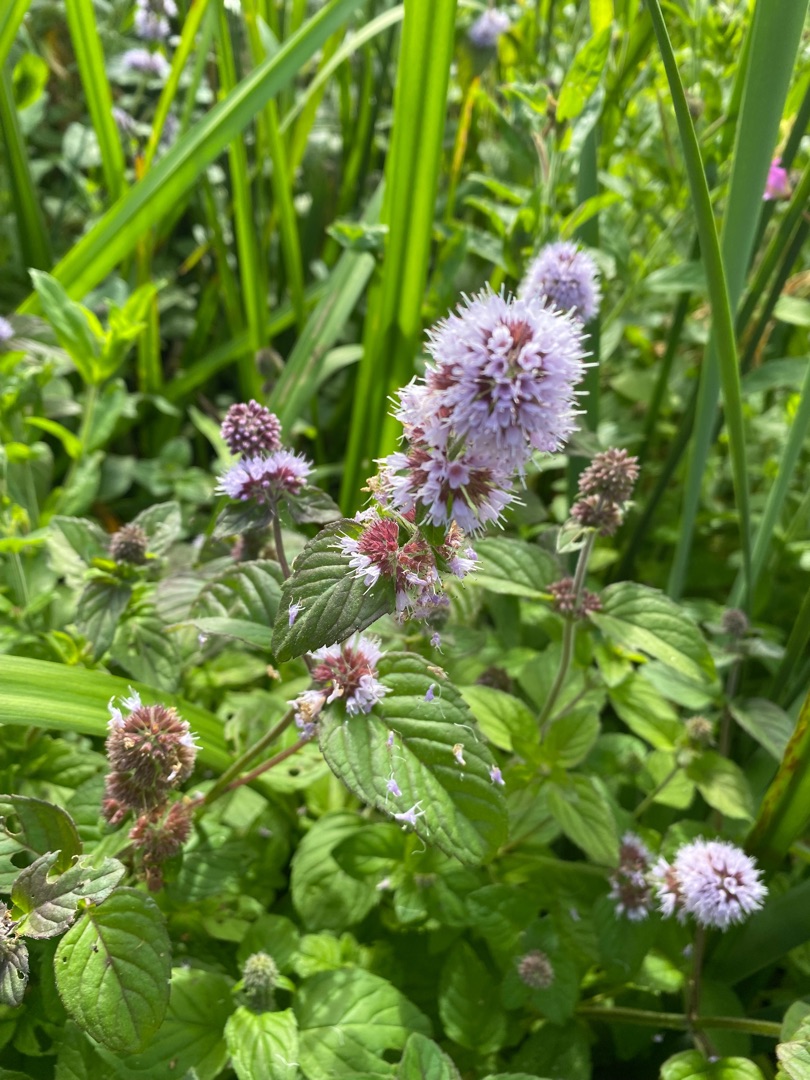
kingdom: Plantae
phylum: Tracheophyta
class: Magnoliopsida
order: Lamiales
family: Lamiaceae
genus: Mentha
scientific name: Mentha aquatica
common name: Vand-mynte
